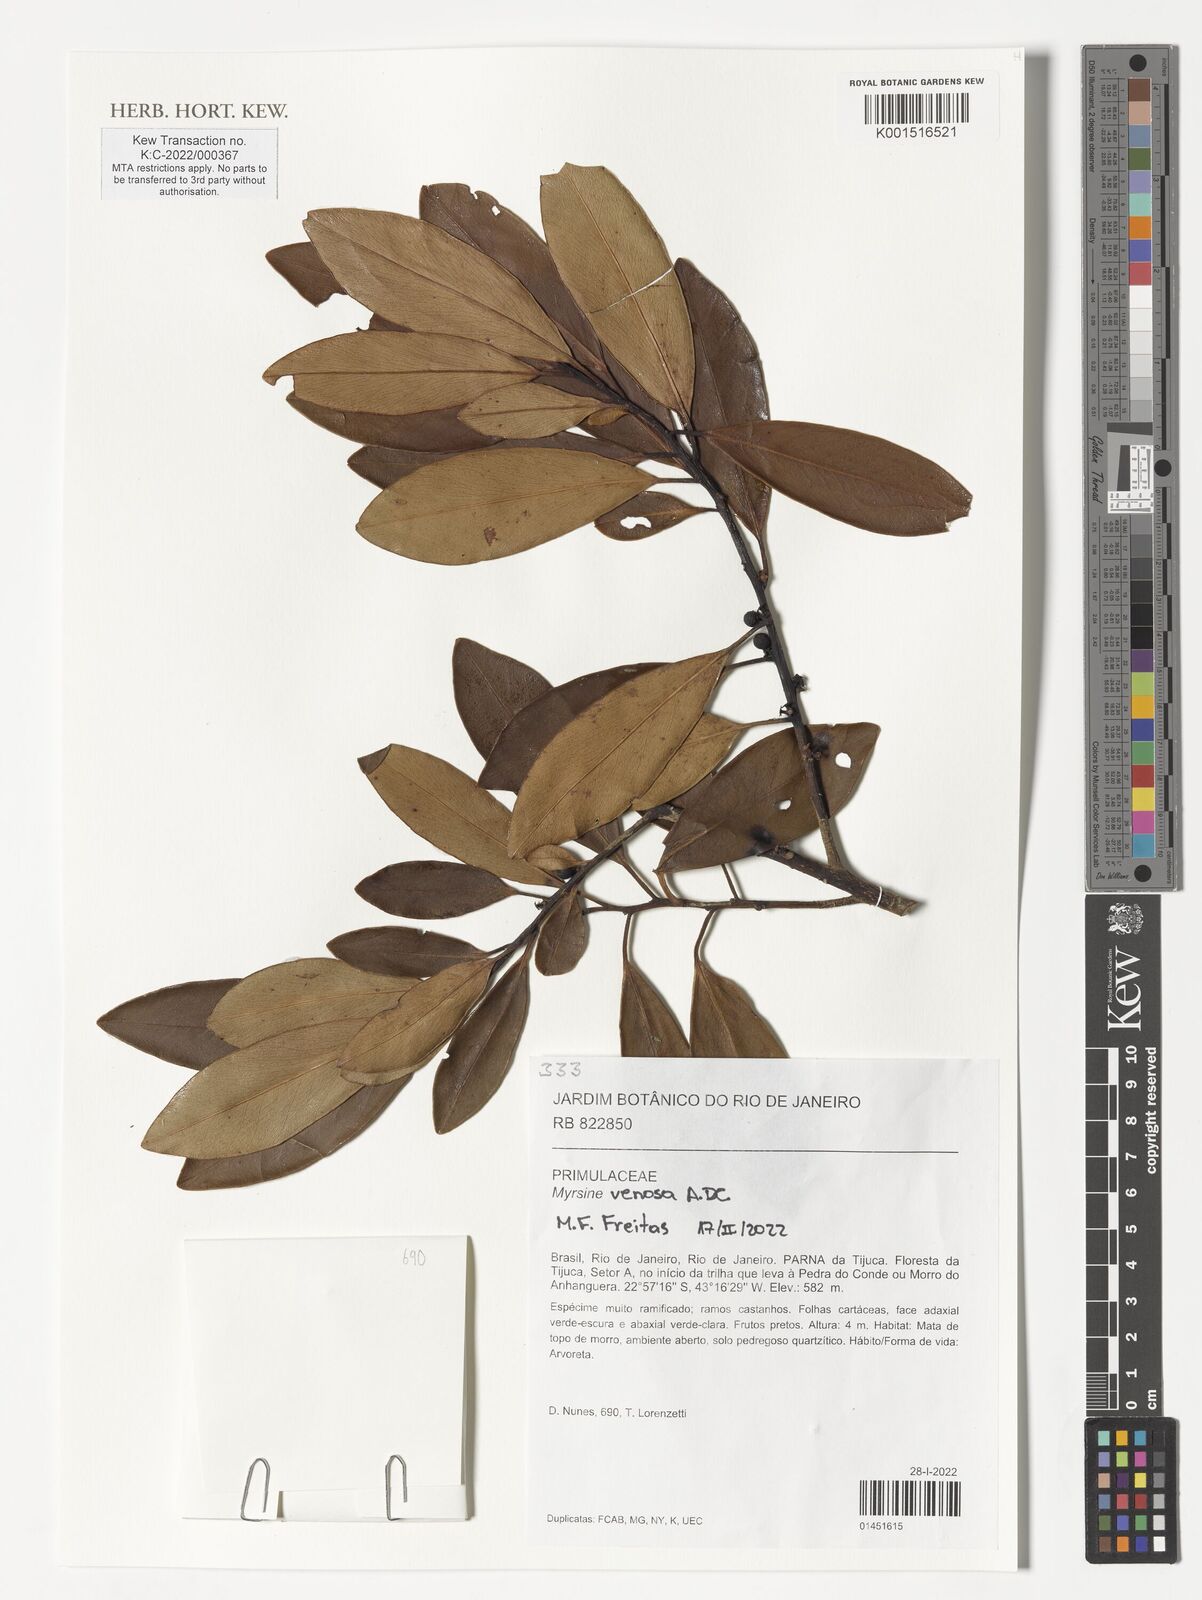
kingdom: Plantae
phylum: Tracheophyta
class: Magnoliopsida
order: Ericales
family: Primulaceae
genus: Myrsine
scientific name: Myrsine venosa
